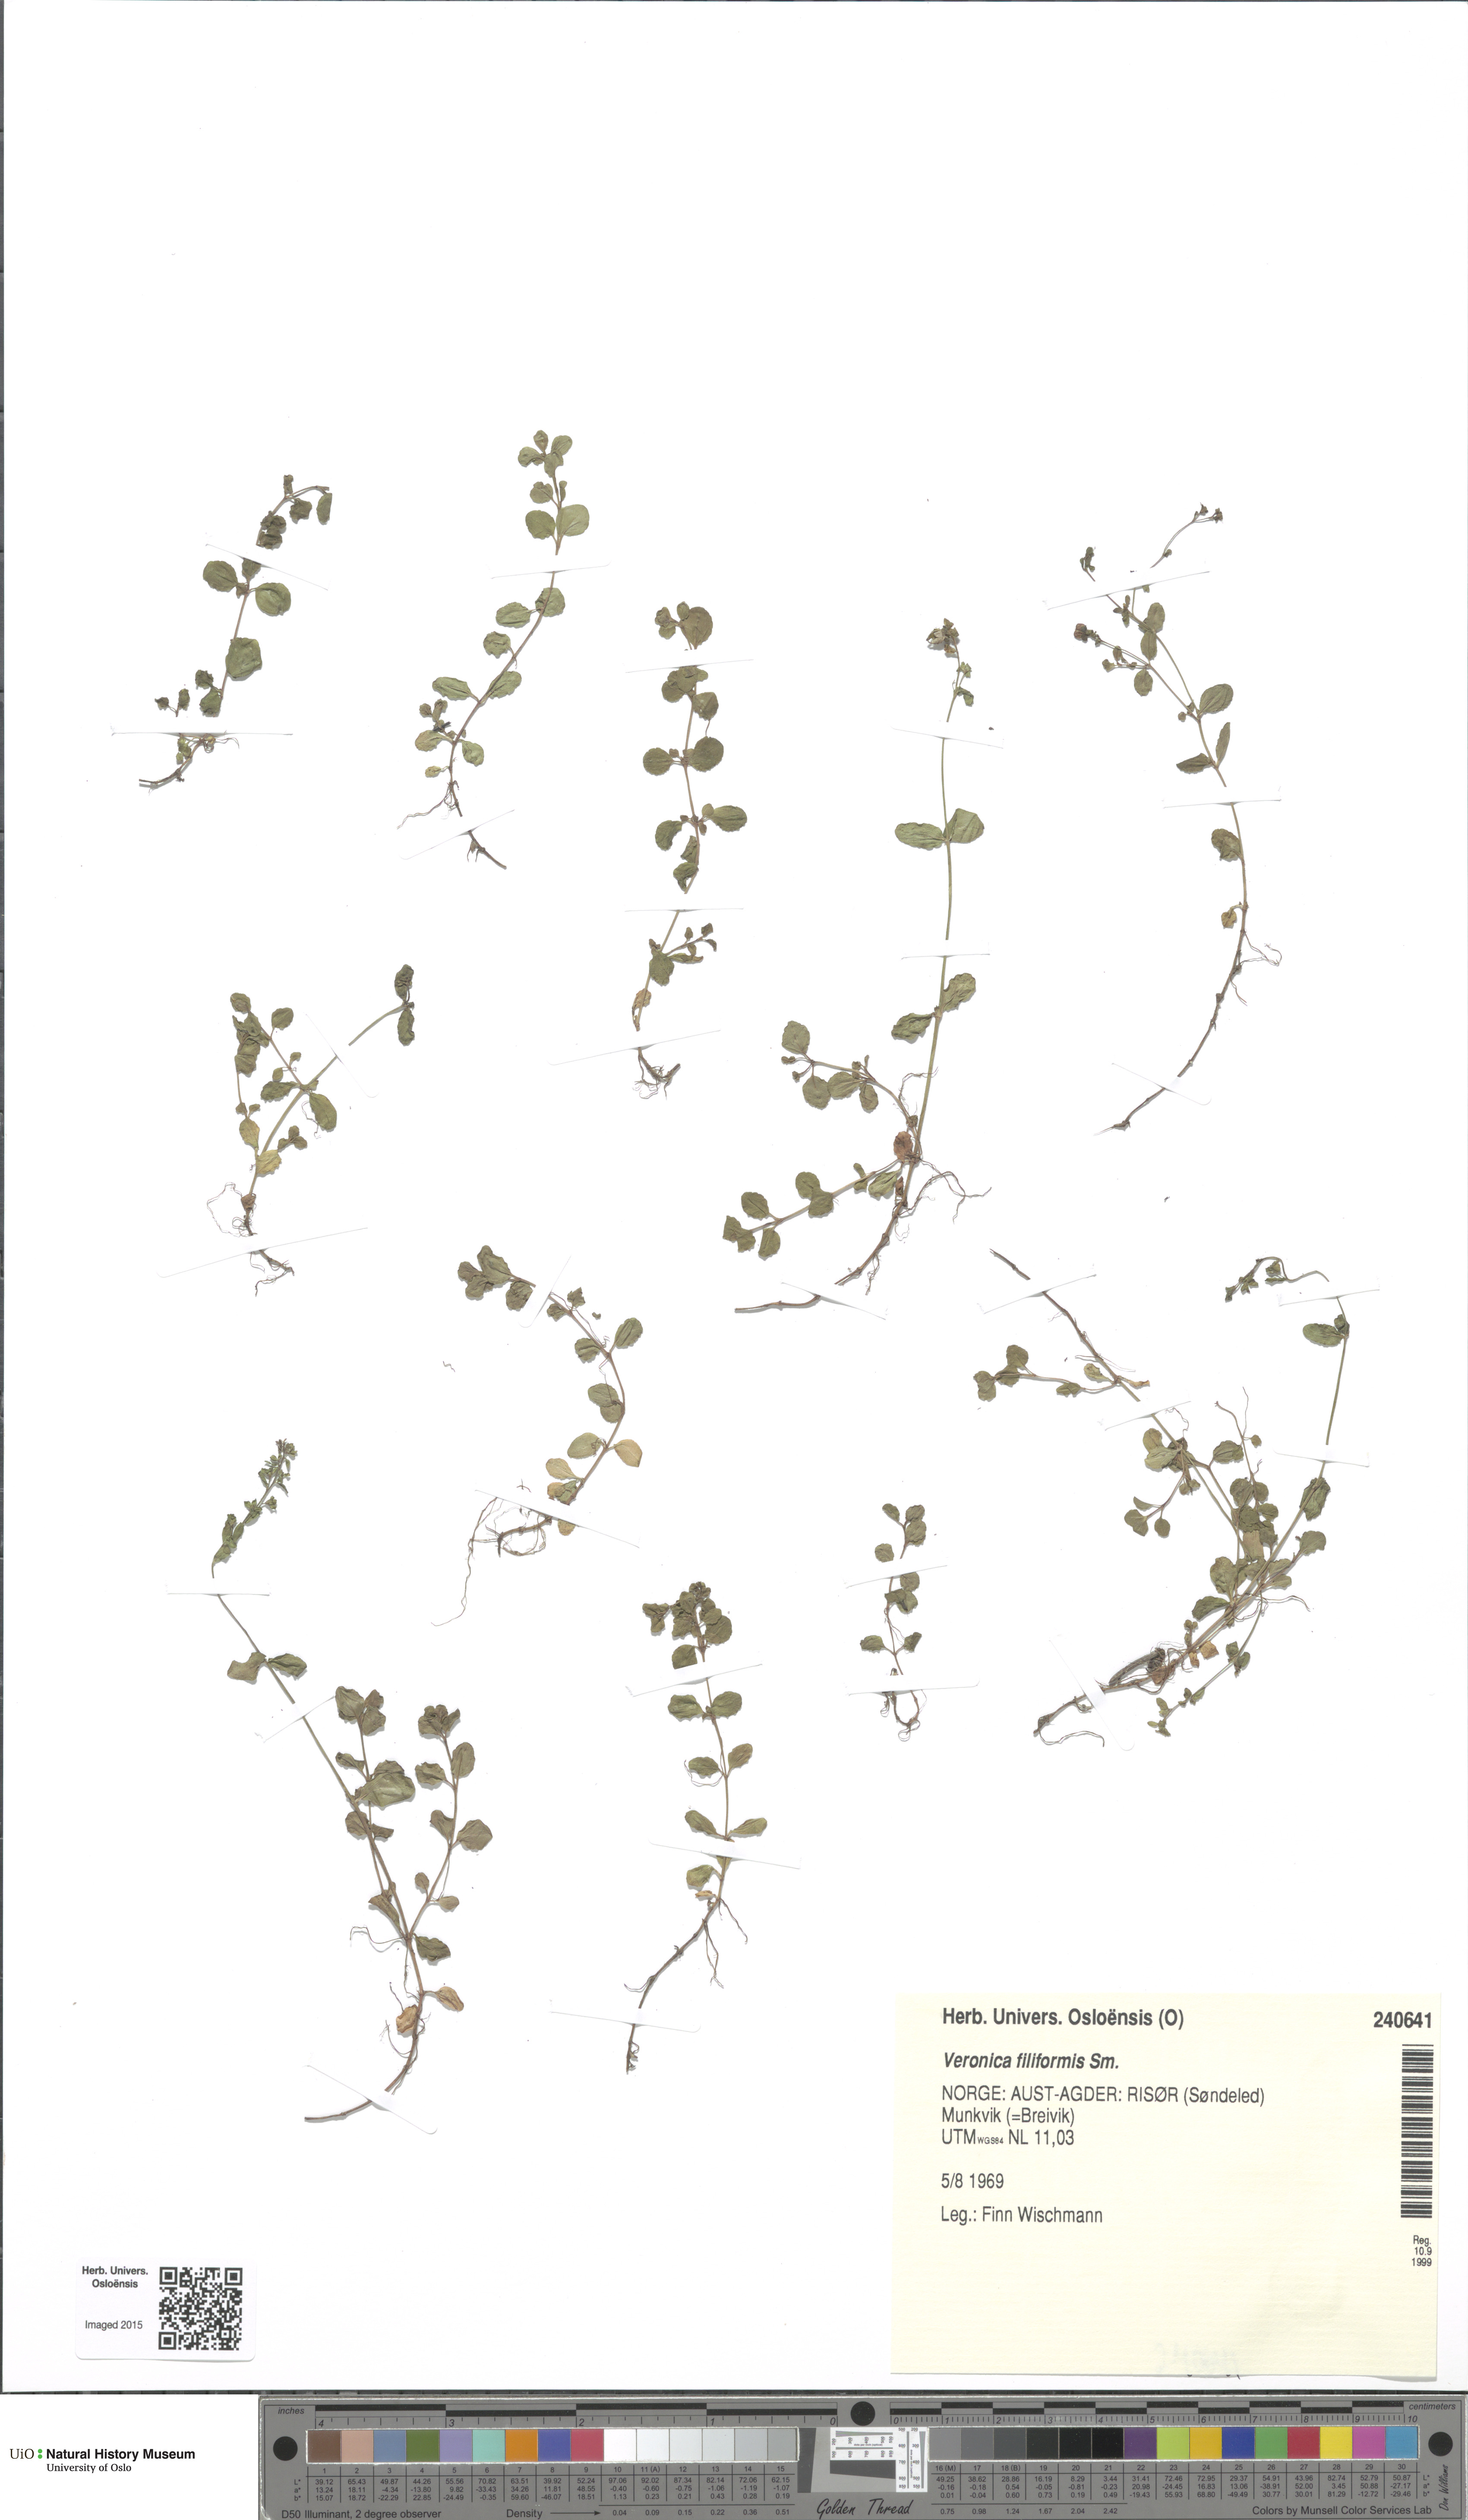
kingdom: Plantae
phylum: Tracheophyta
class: Magnoliopsida
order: Lamiales
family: Plantaginaceae
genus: Veronica
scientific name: Veronica filiformis
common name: Slender speedwell
